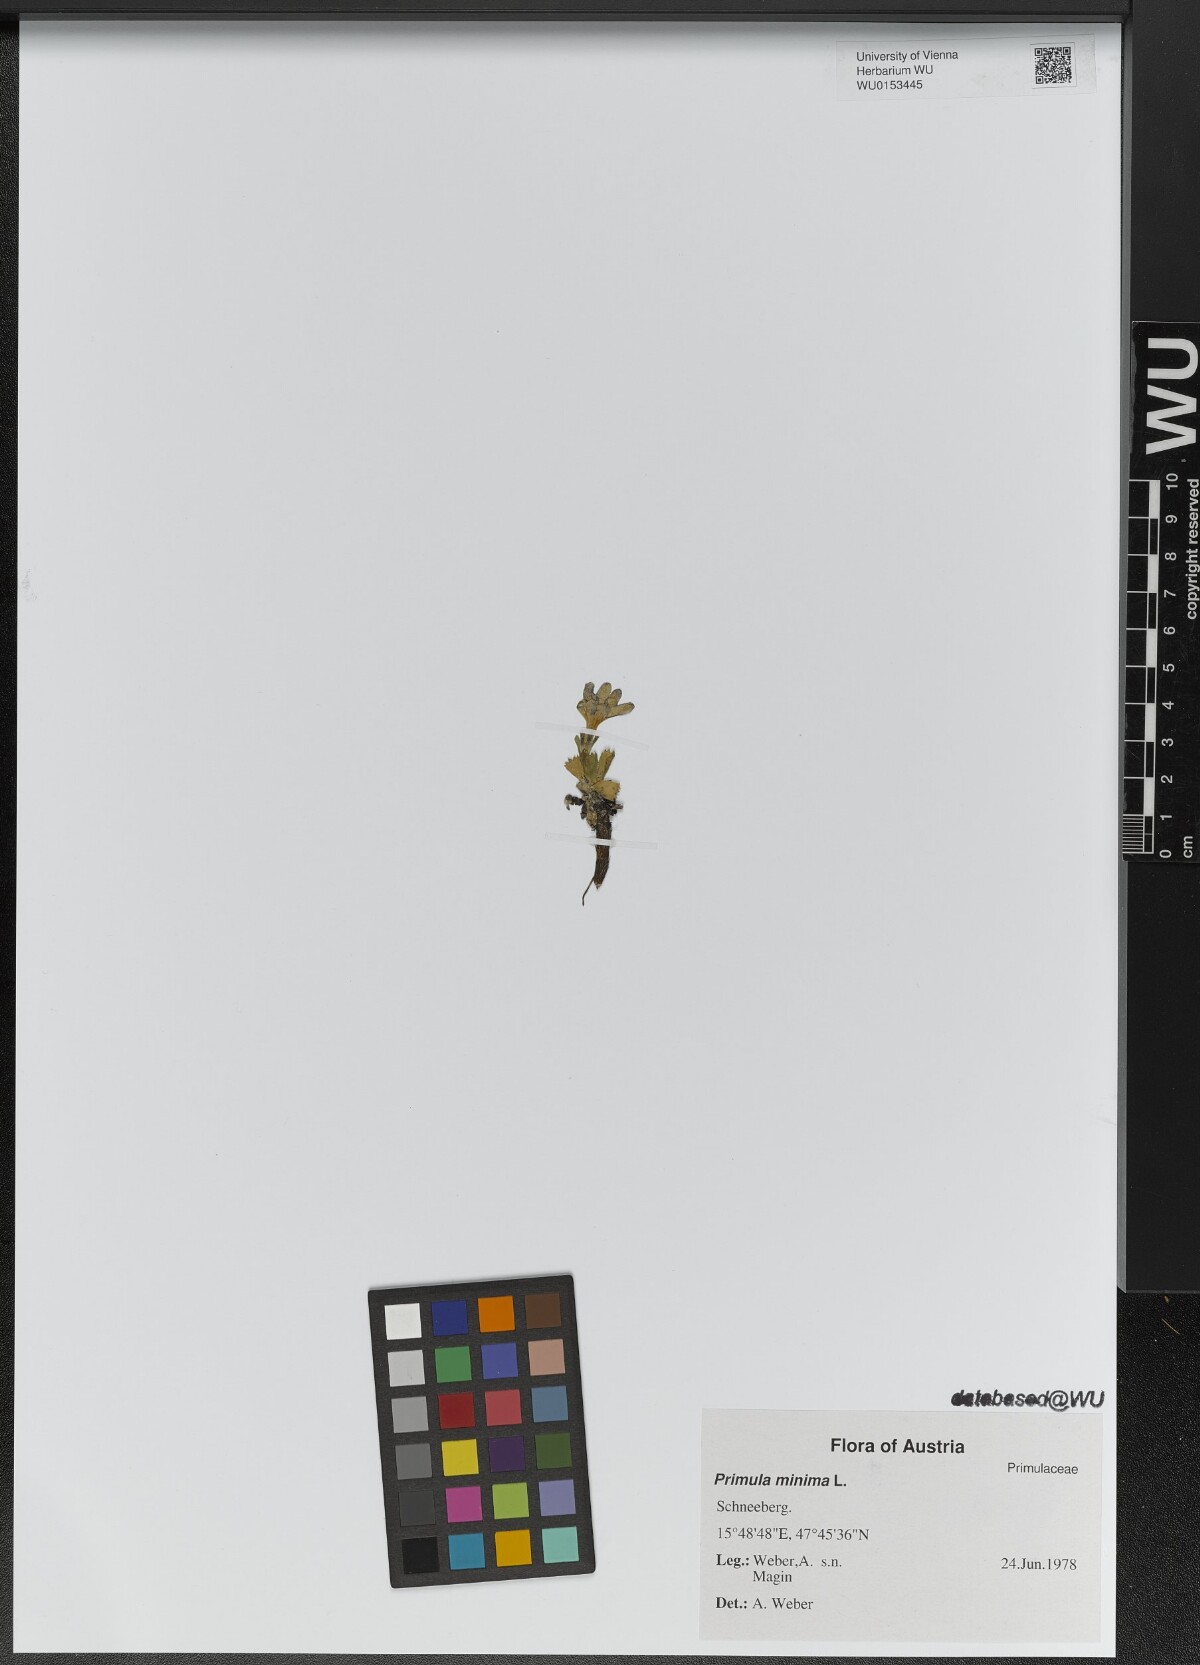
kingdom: Plantae
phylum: Tracheophyta
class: Magnoliopsida
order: Ericales
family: Primulaceae
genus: Primula
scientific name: Primula minima
